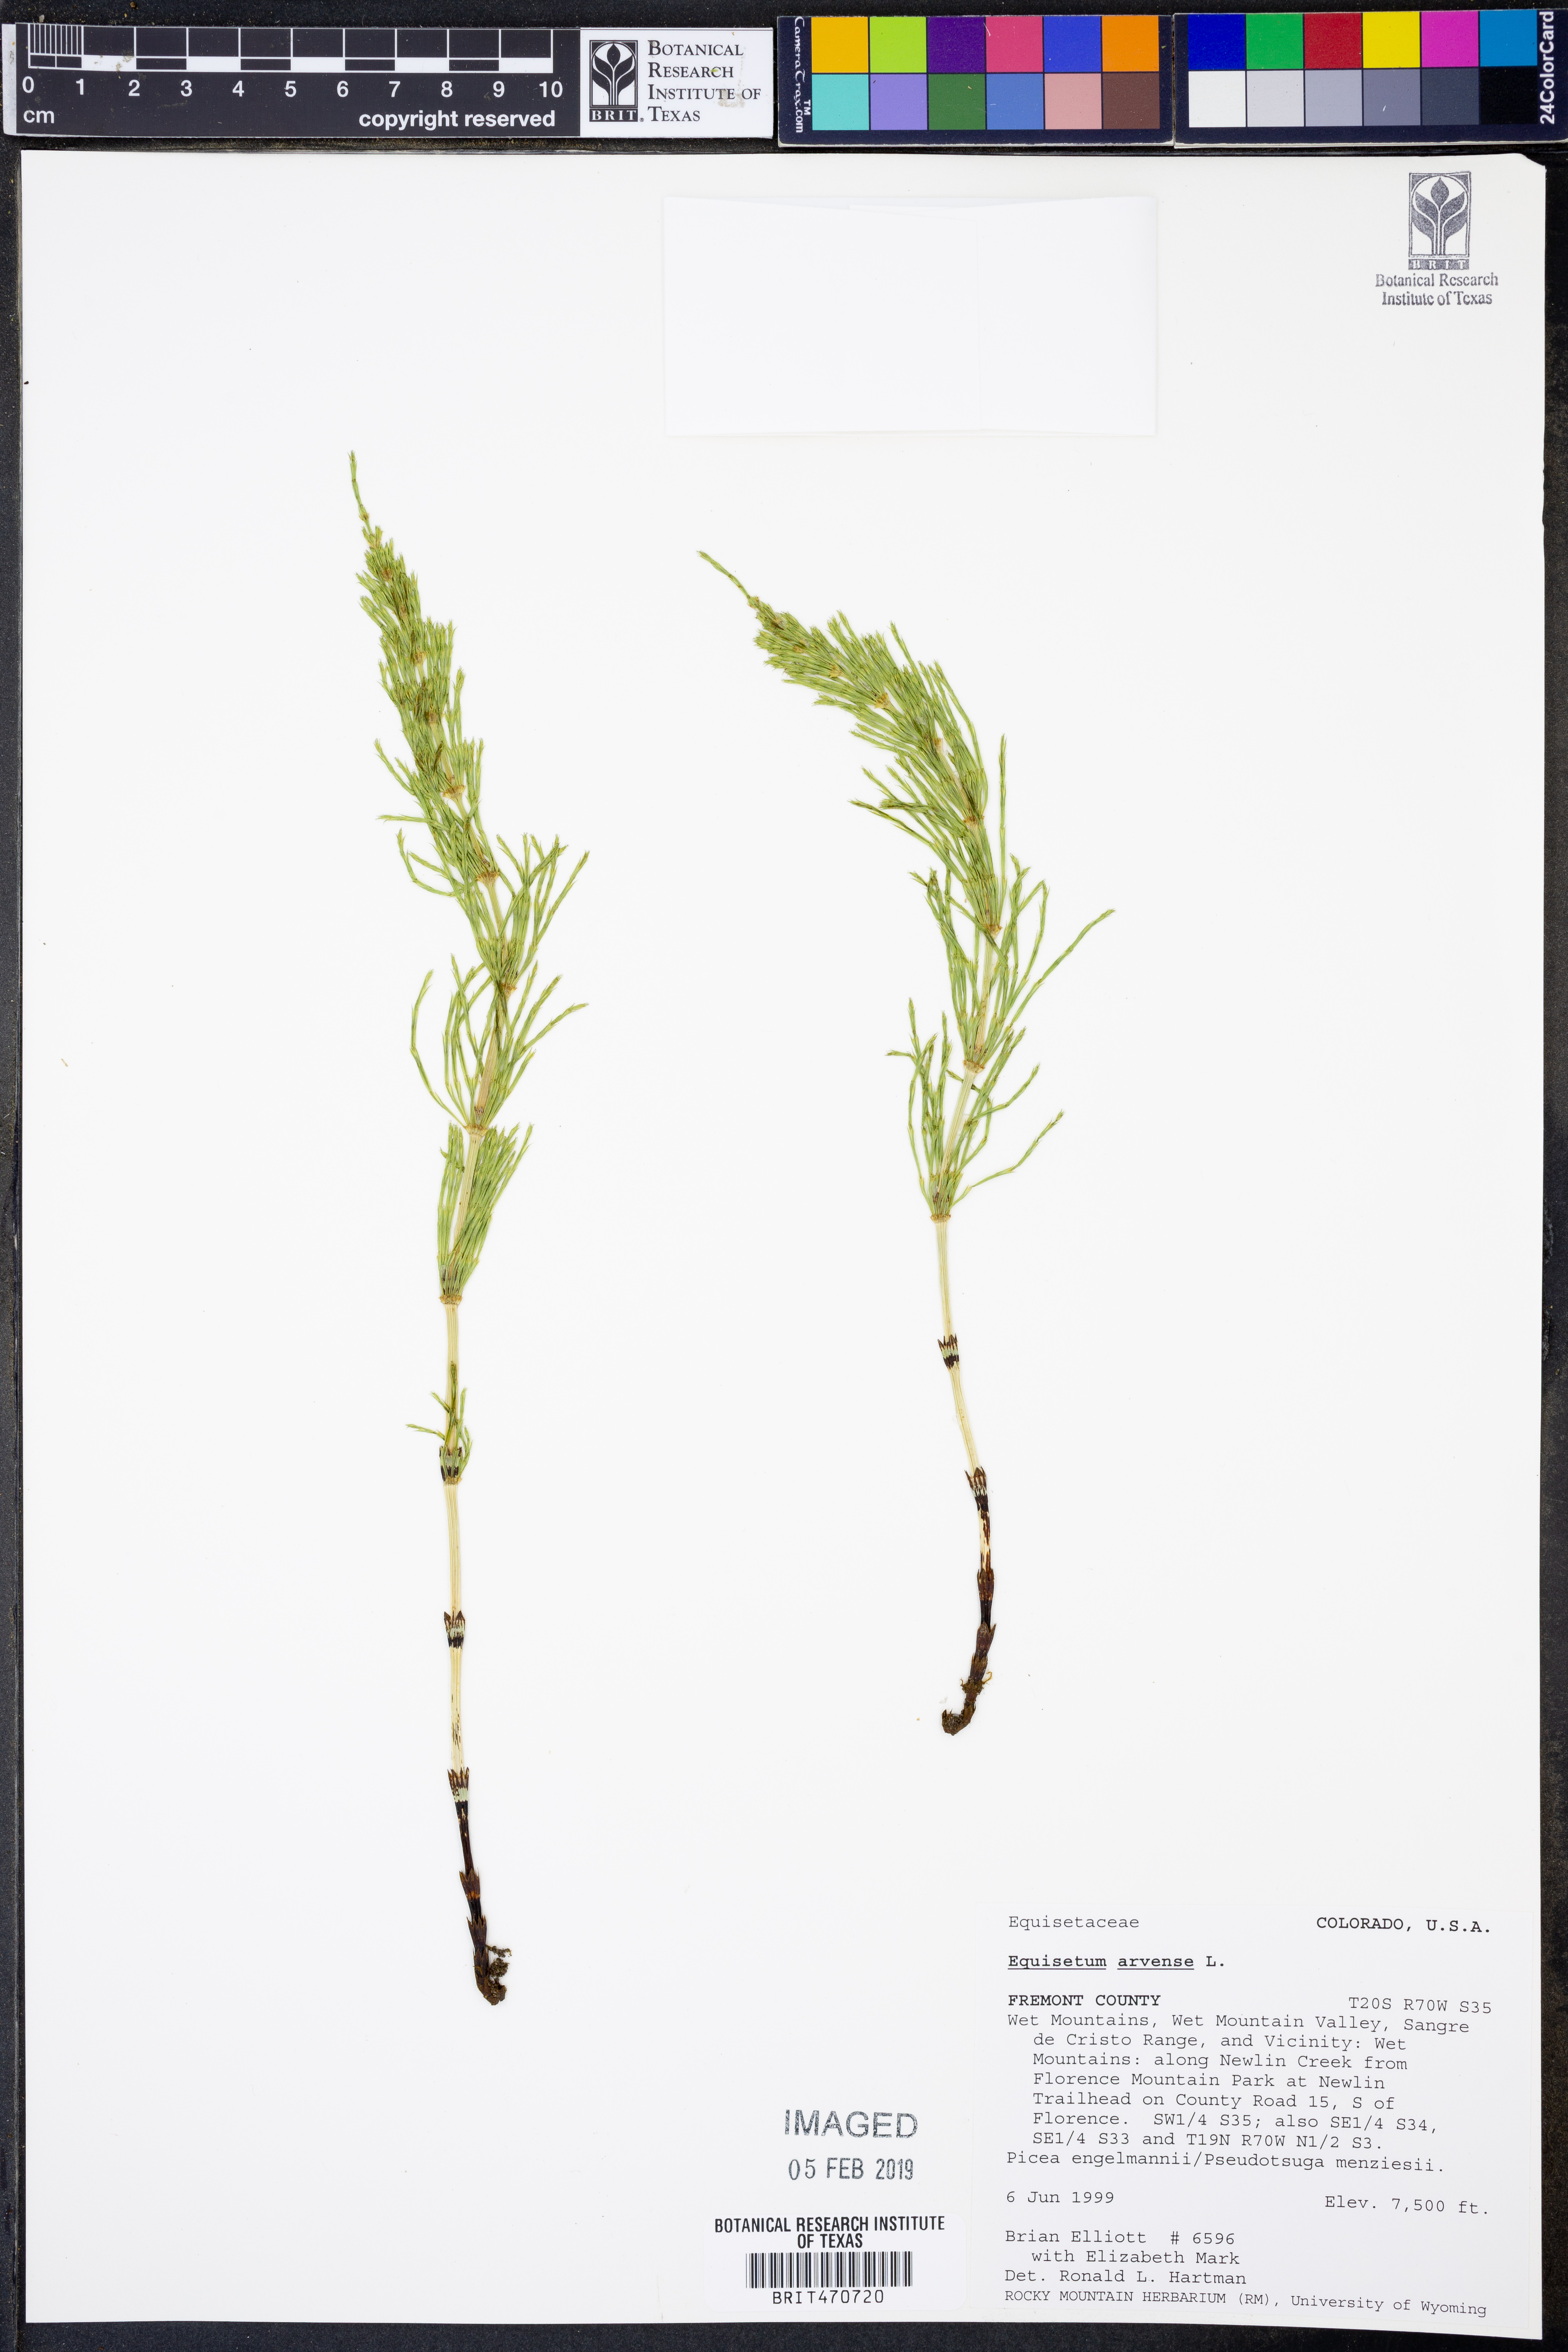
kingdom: Plantae
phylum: Tracheophyta
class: Polypodiopsida
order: Equisetales
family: Equisetaceae
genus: Equisetum
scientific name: Equisetum arvense
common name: Field horsetail
